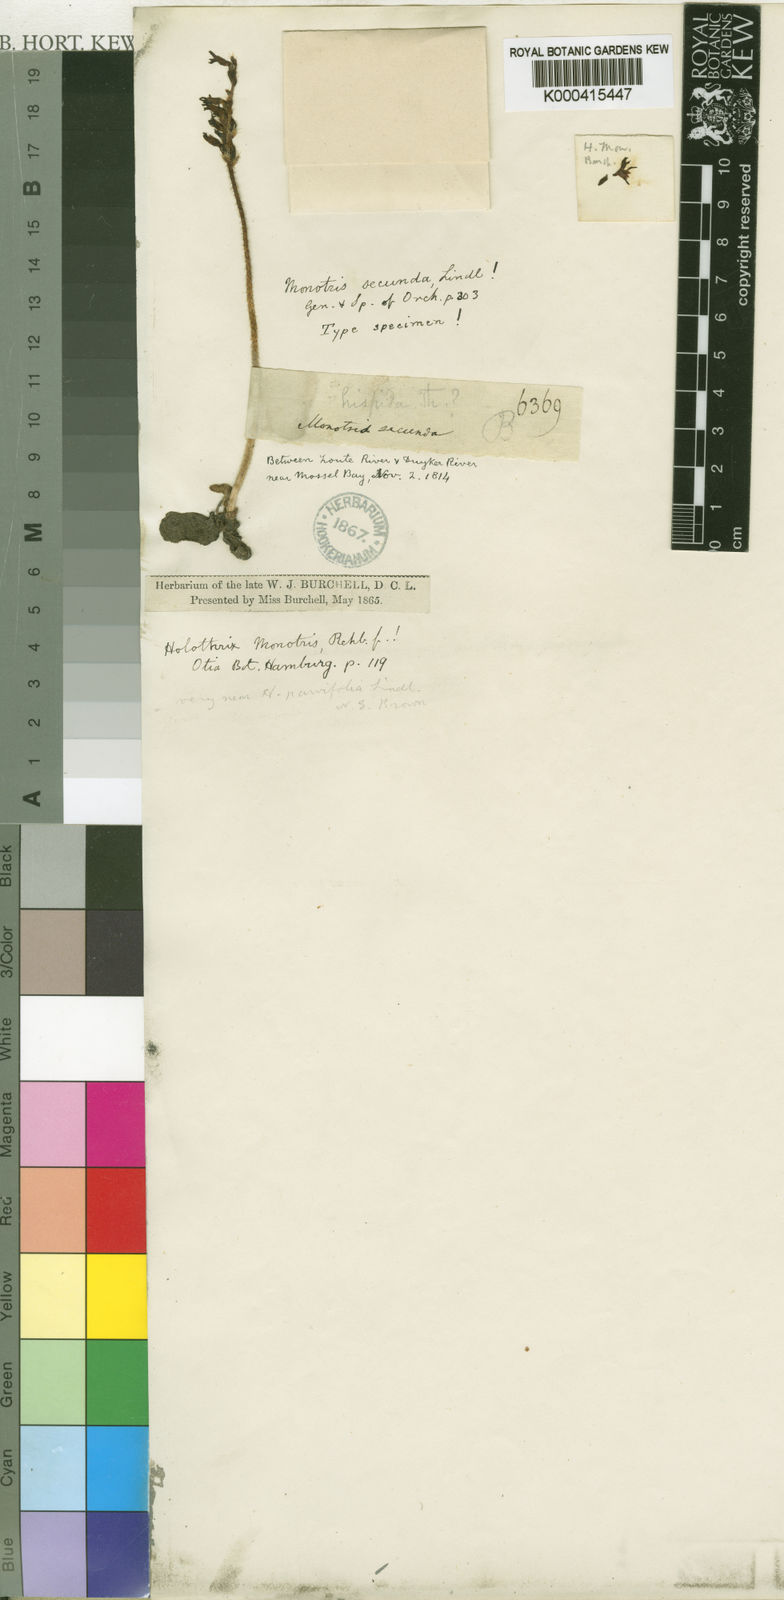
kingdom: Plantae
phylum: Tracheophyta
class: Liliopsida
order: Asparagales
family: Orchidaceae
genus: Holothrix
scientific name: Holothrix cernua
